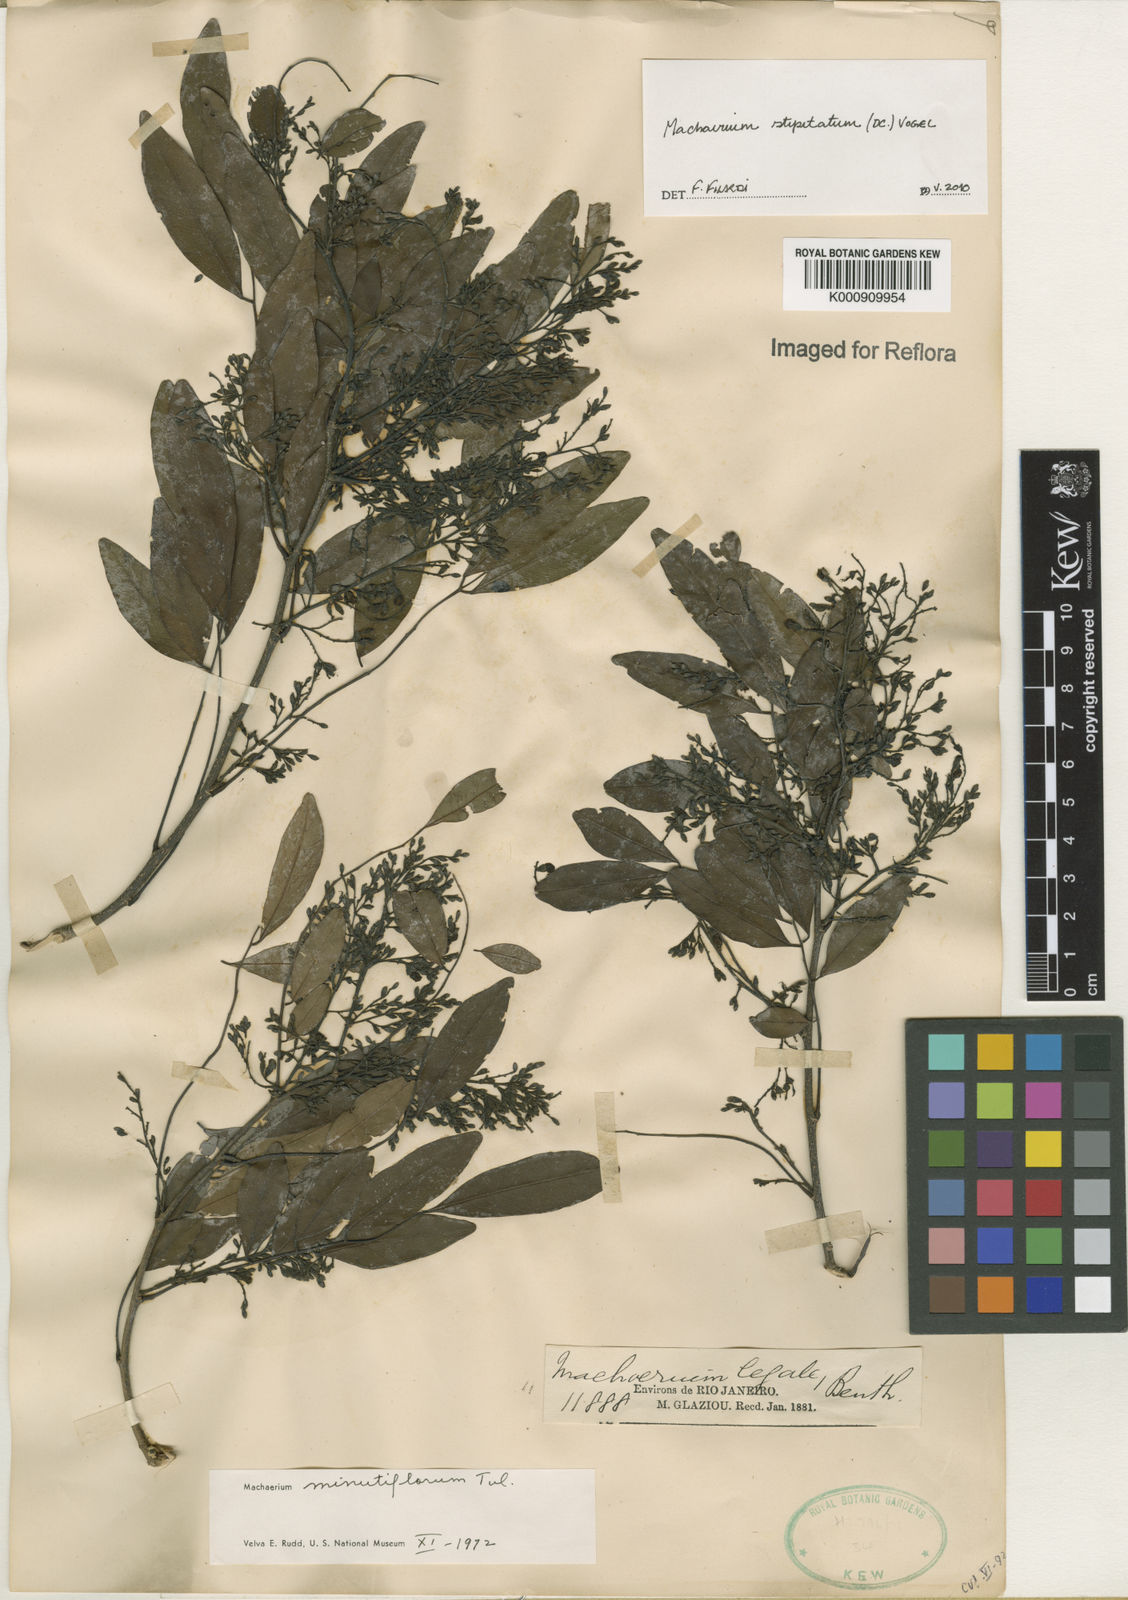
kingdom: Plantae
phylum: Tracheophyta
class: Magnoliopsida
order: Fabales
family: Fabaceae
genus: Machaerium
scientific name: Machaerium stipitatum
